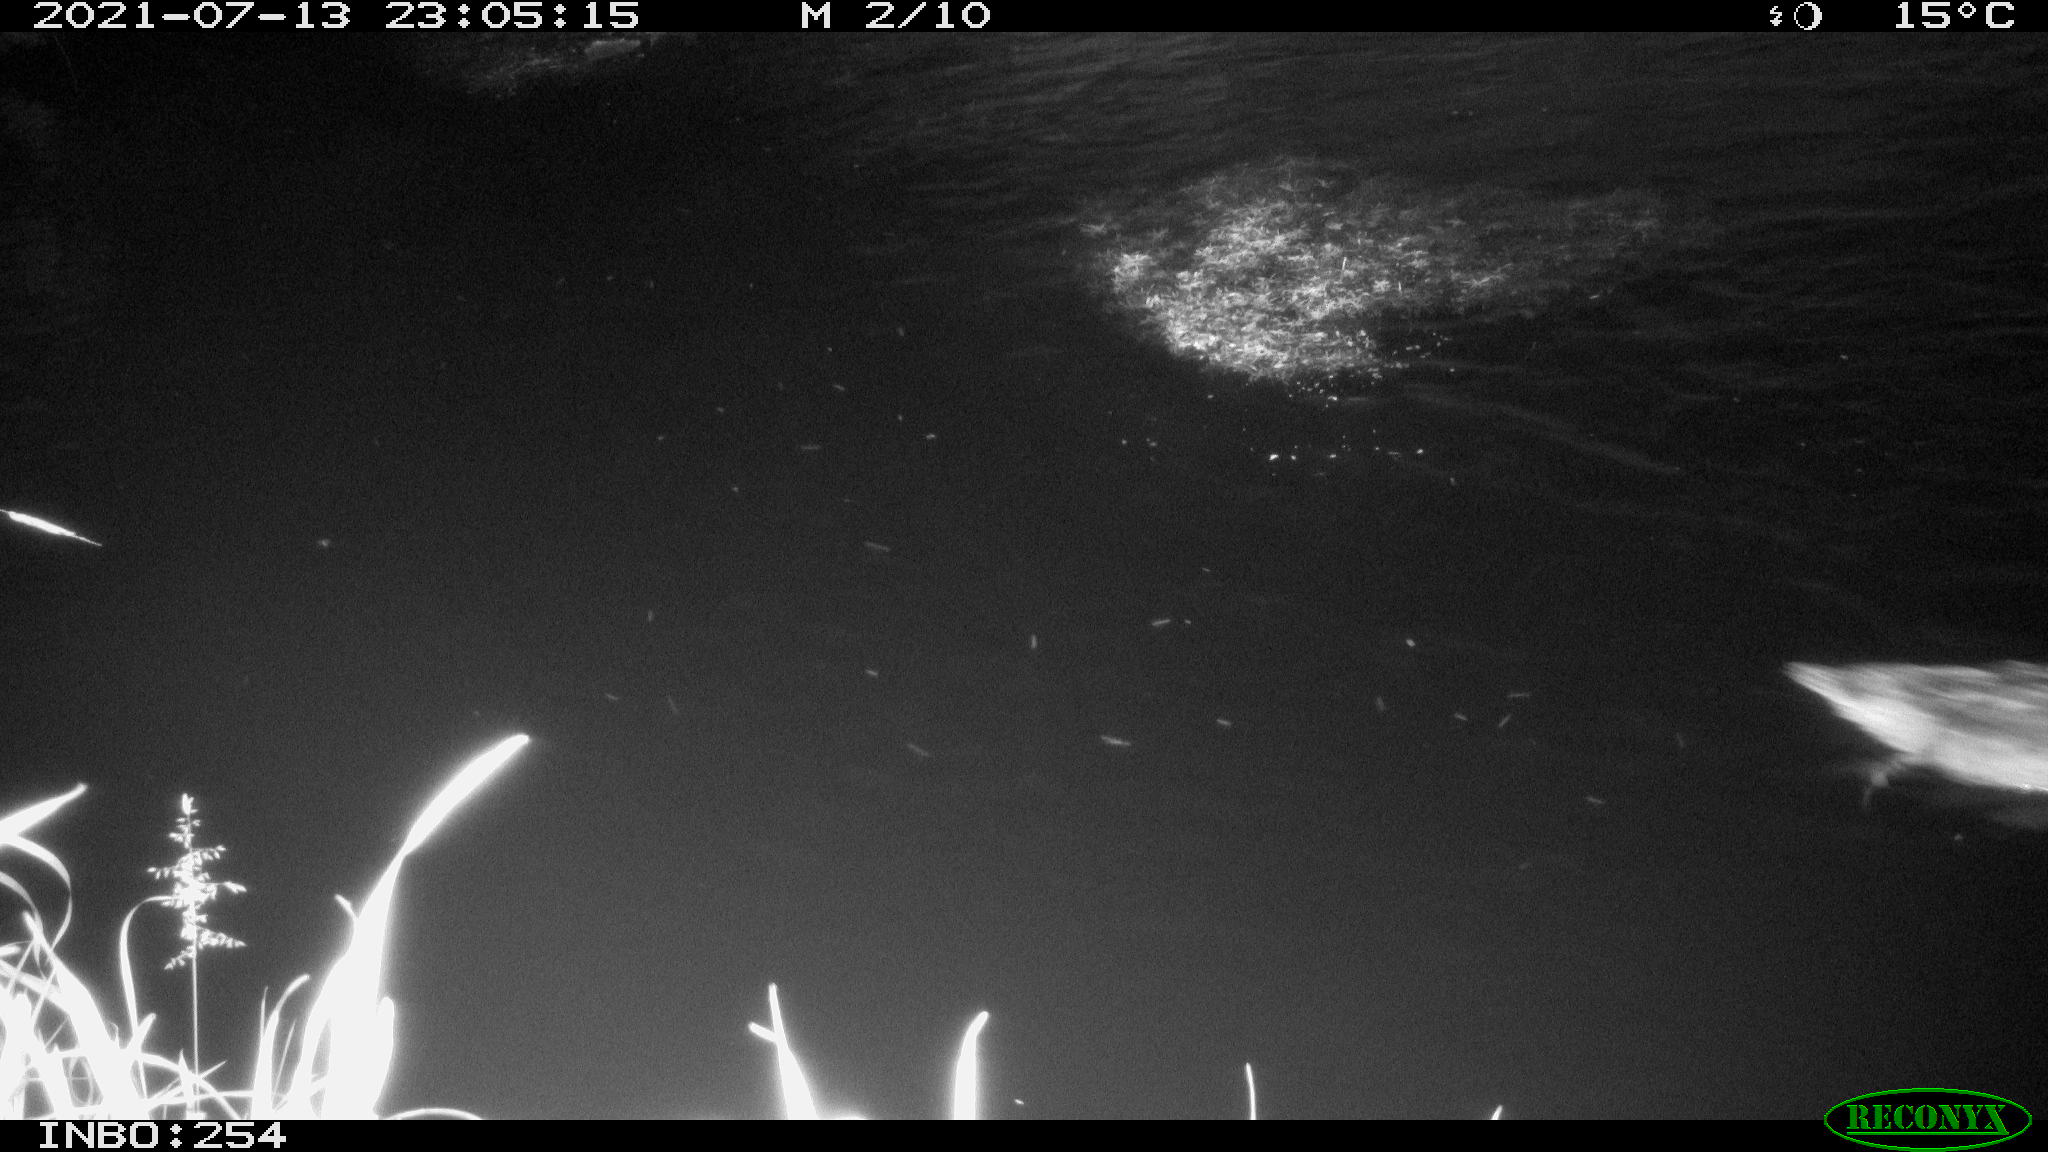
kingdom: Animalia
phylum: Chordata
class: Aves
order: Anseriformes
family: Anatidae
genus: Anas
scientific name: Anas platyrhynchos
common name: Mallard
